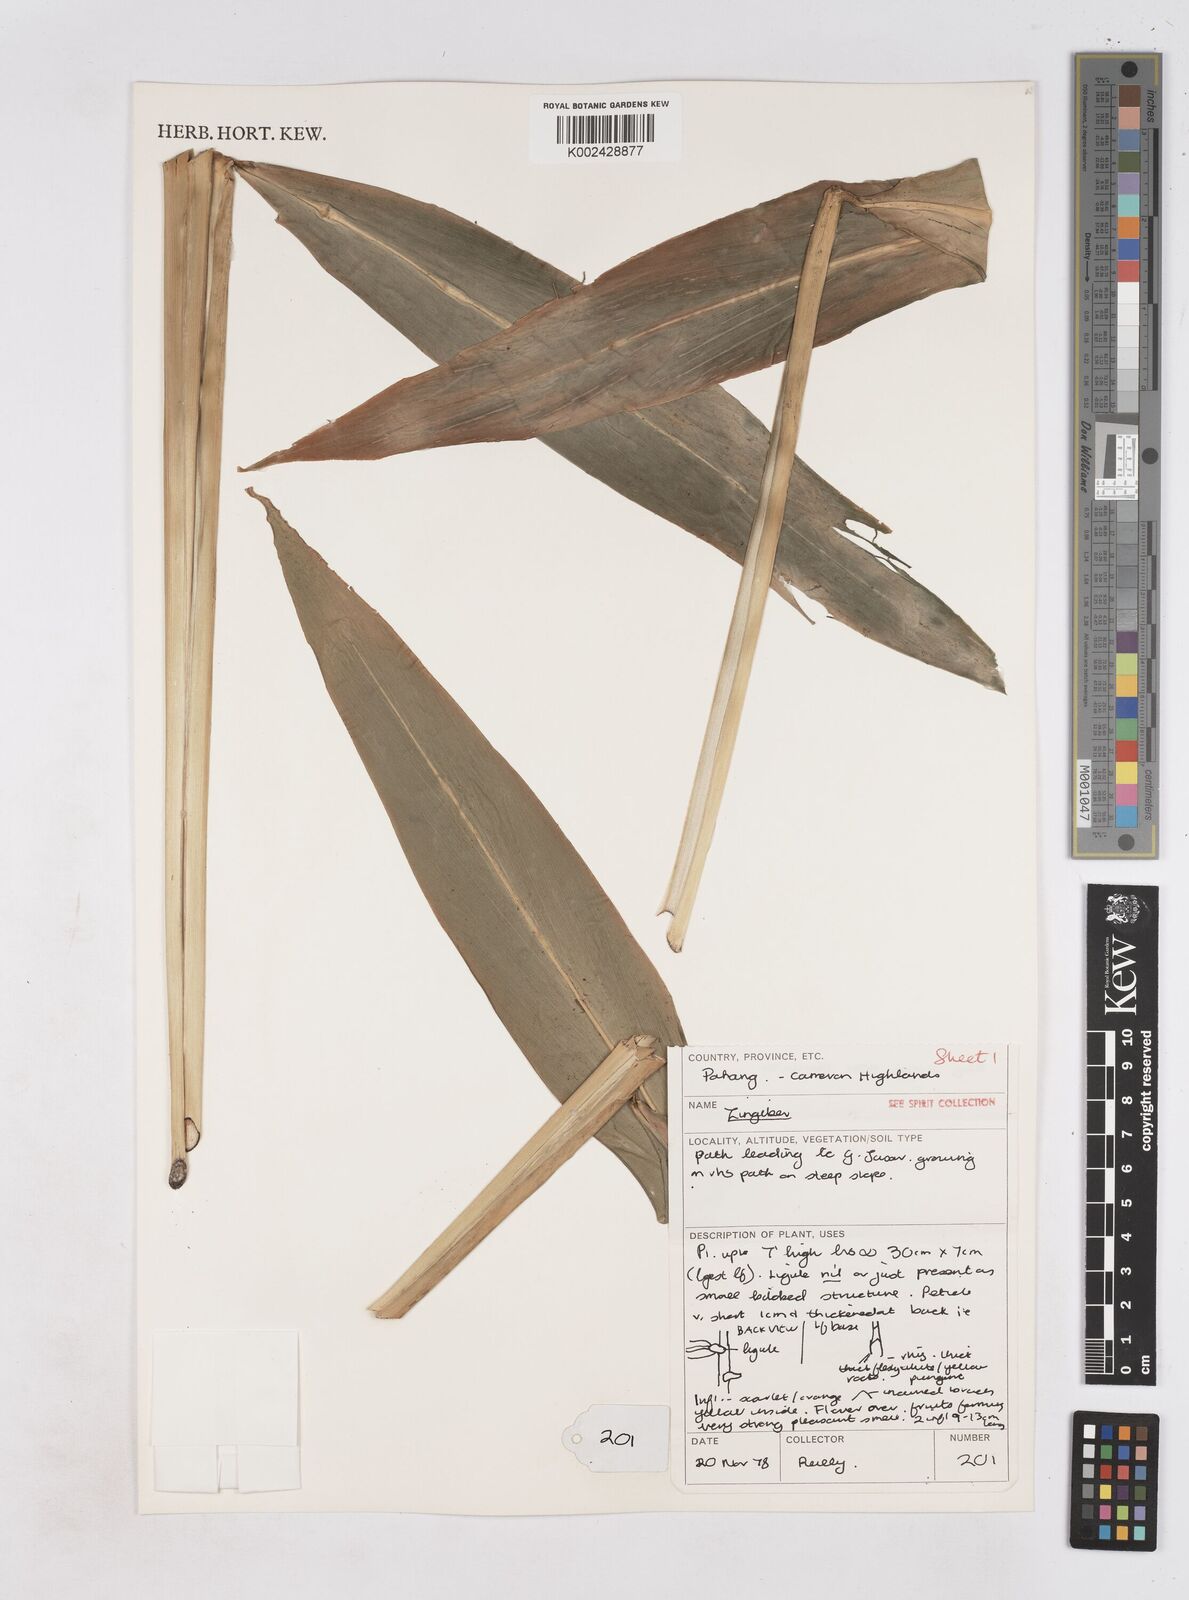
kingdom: Plantae
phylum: Tracheophyta
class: Liliopsida
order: Zingiberales
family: Zingiberaceae
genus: Zingiber
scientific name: Zingiber
